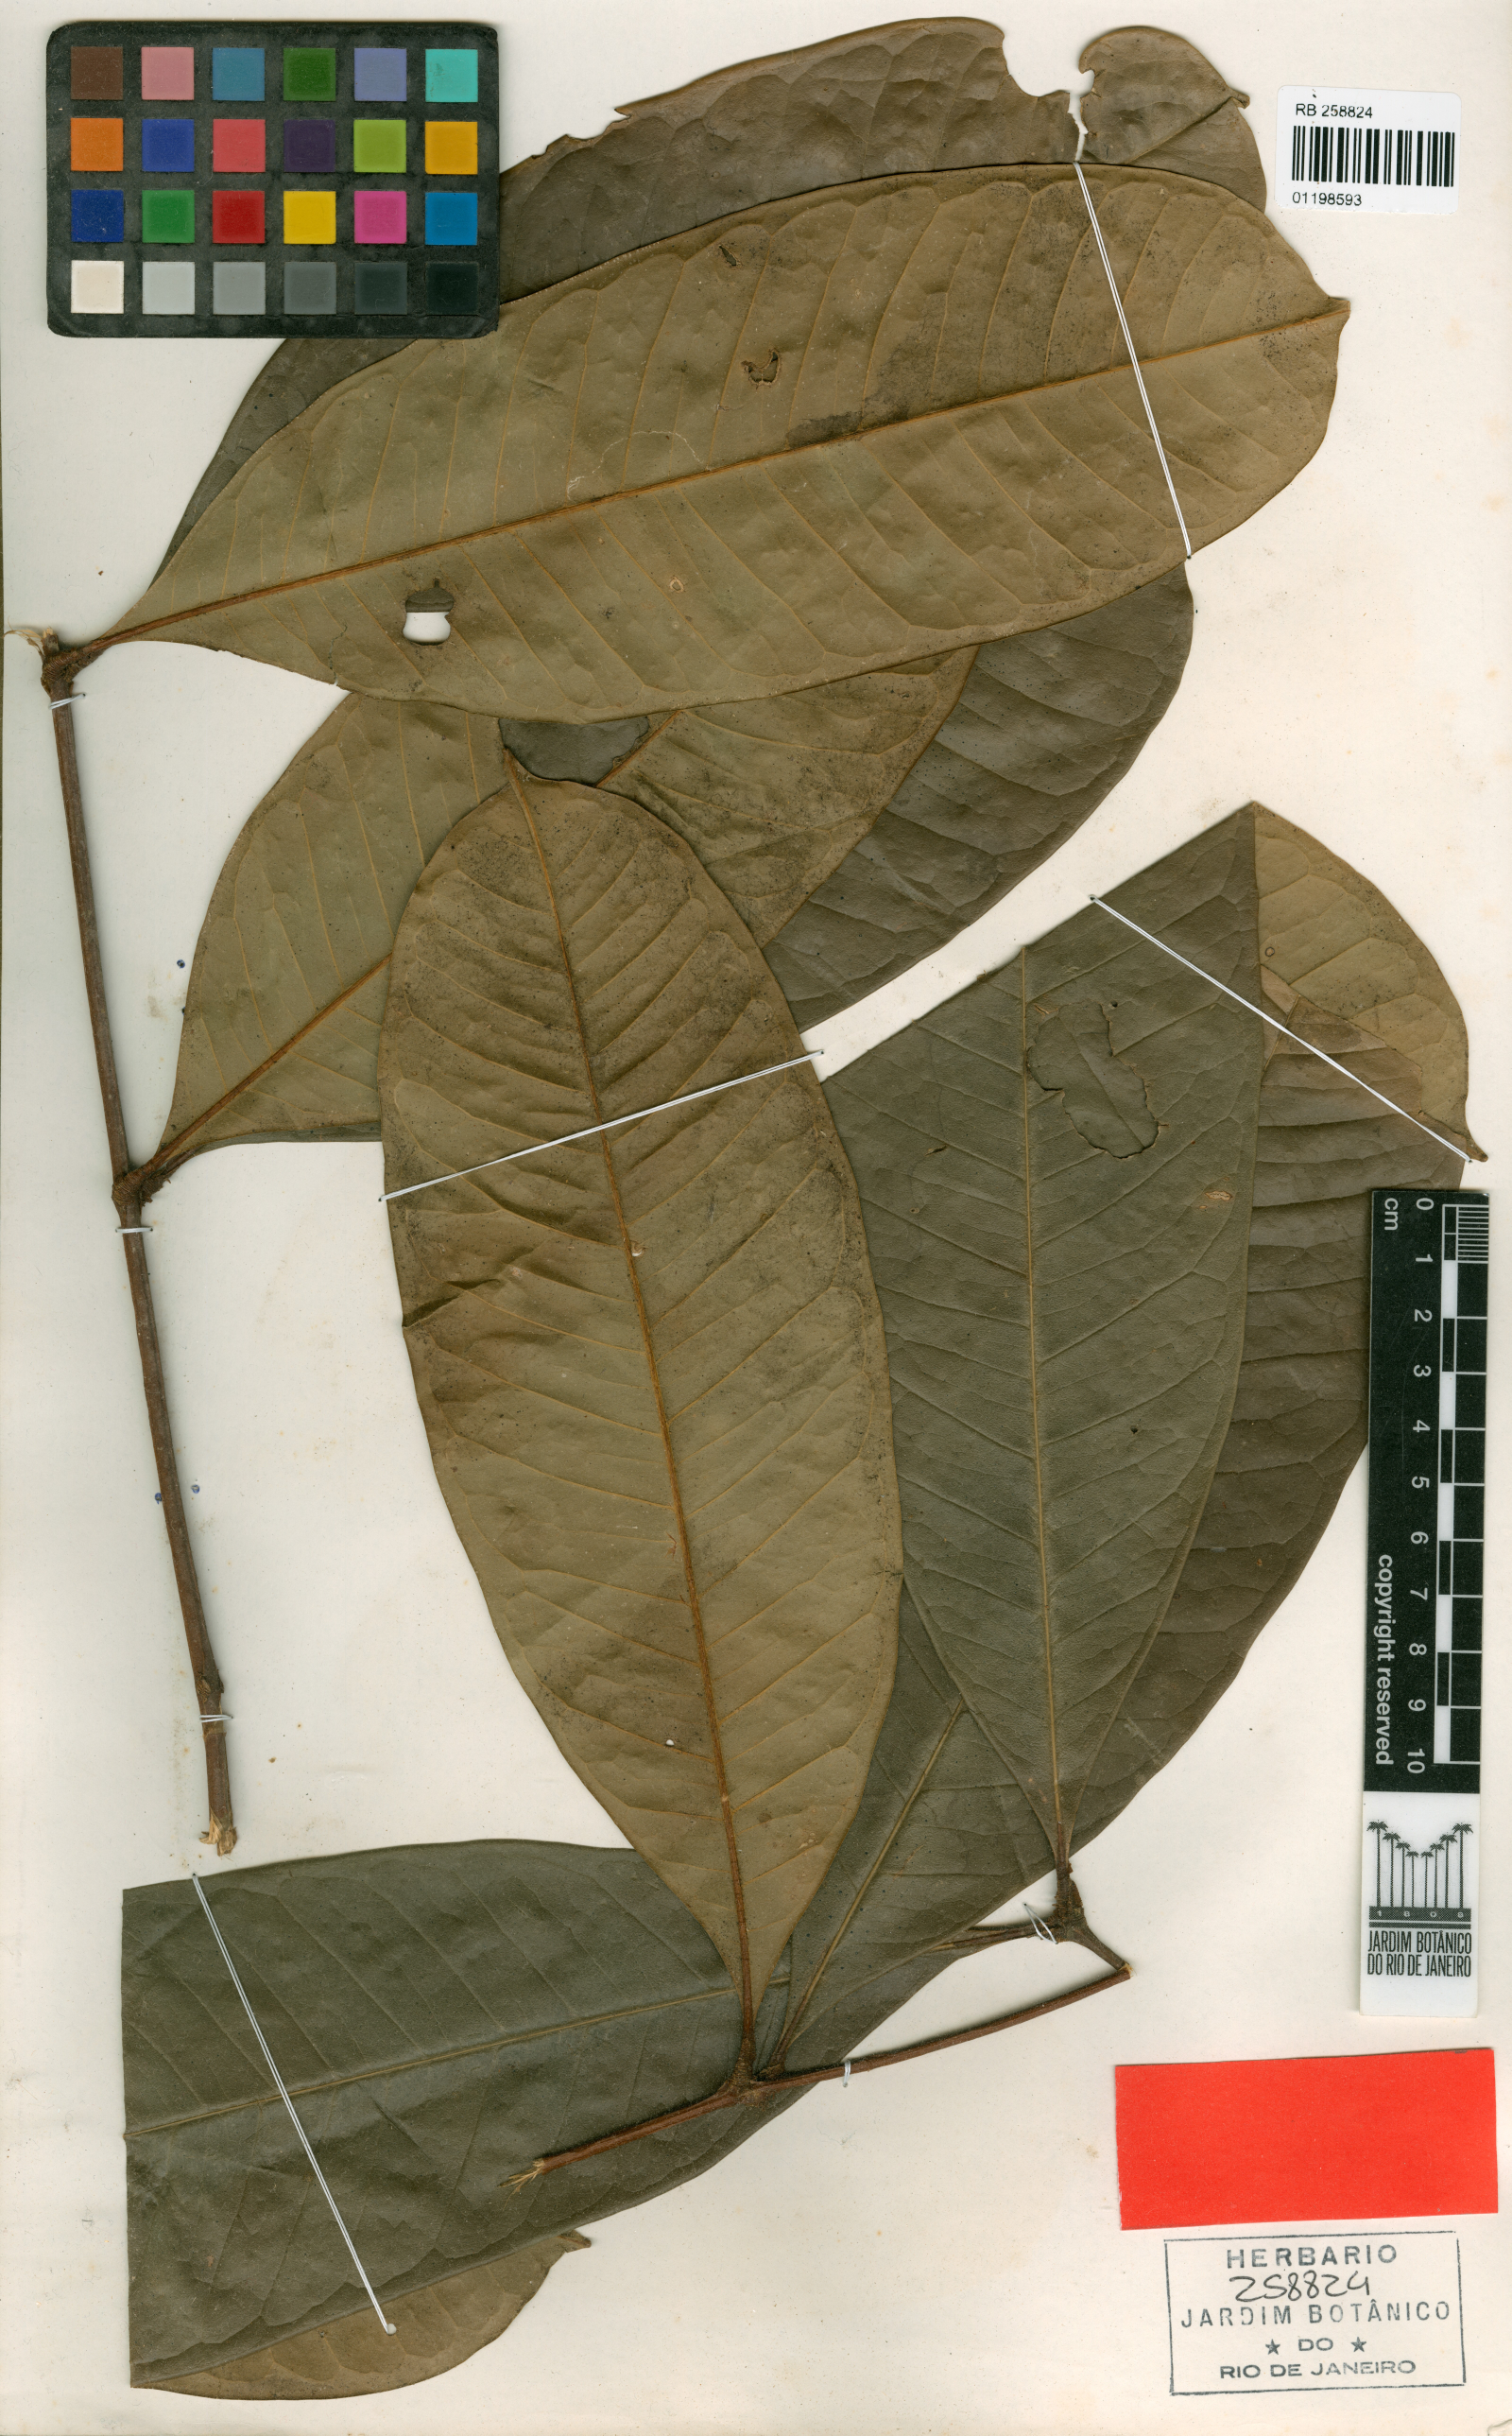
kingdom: Plantae
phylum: Tracheophyta
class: Magnoliopsida
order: Sapindales
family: Simaroubaceae
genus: Homalolepis
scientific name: Homalolepis cavalcantei
